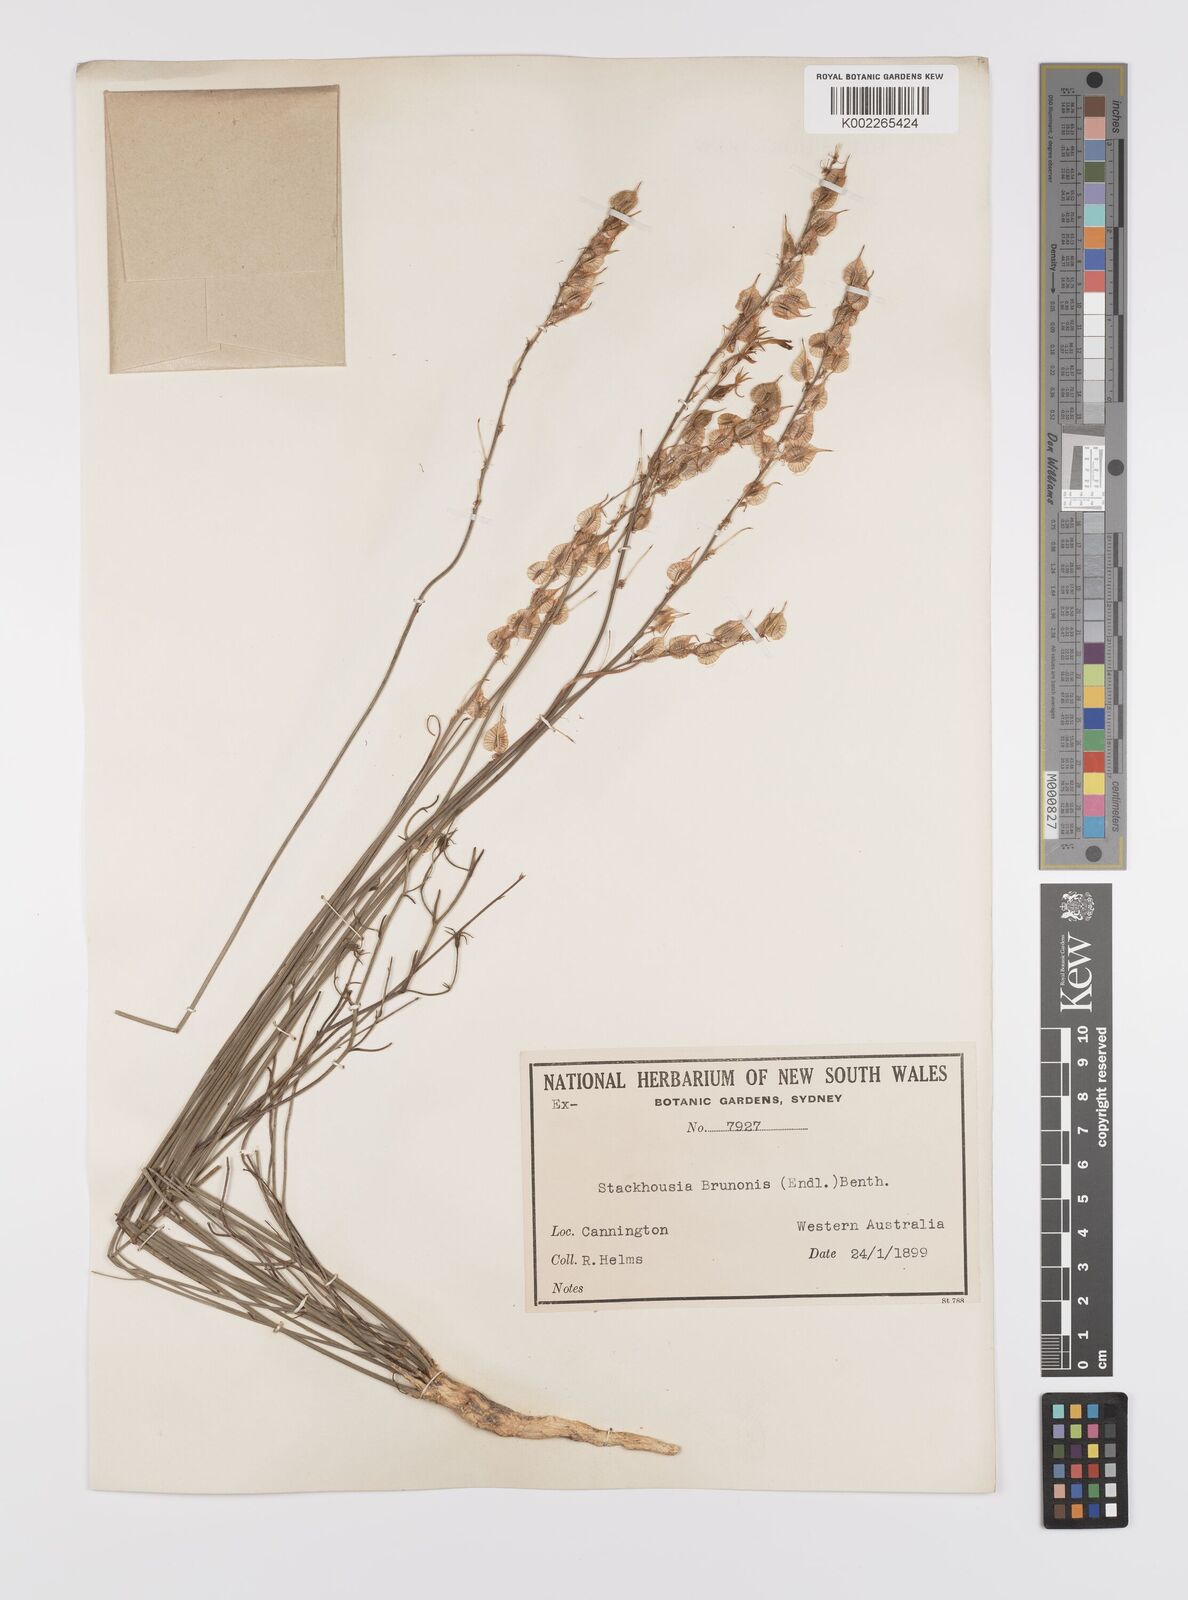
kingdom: Plantae
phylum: Tracheophyta
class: Magnoliopsida
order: Celastrales
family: Celastraceae
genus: Tripterococcus
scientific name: Tripterococcus brunonis
